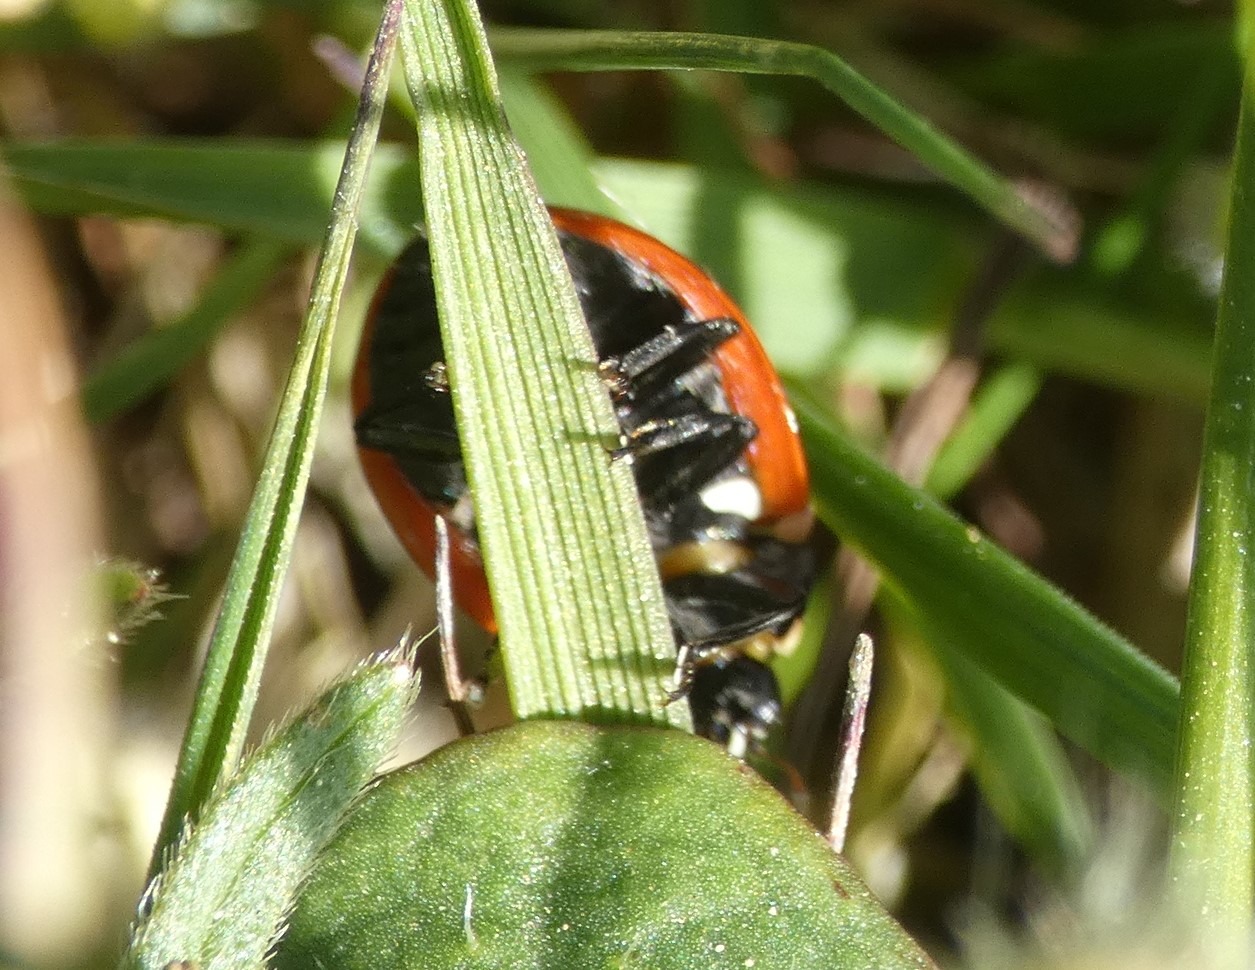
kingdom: Animalia
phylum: Arthropoda
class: Insecta
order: Coleoptera
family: Coccinellidae
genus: Coccinella
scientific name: Coccinella septempunctata
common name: Syvplettet mariehøne
